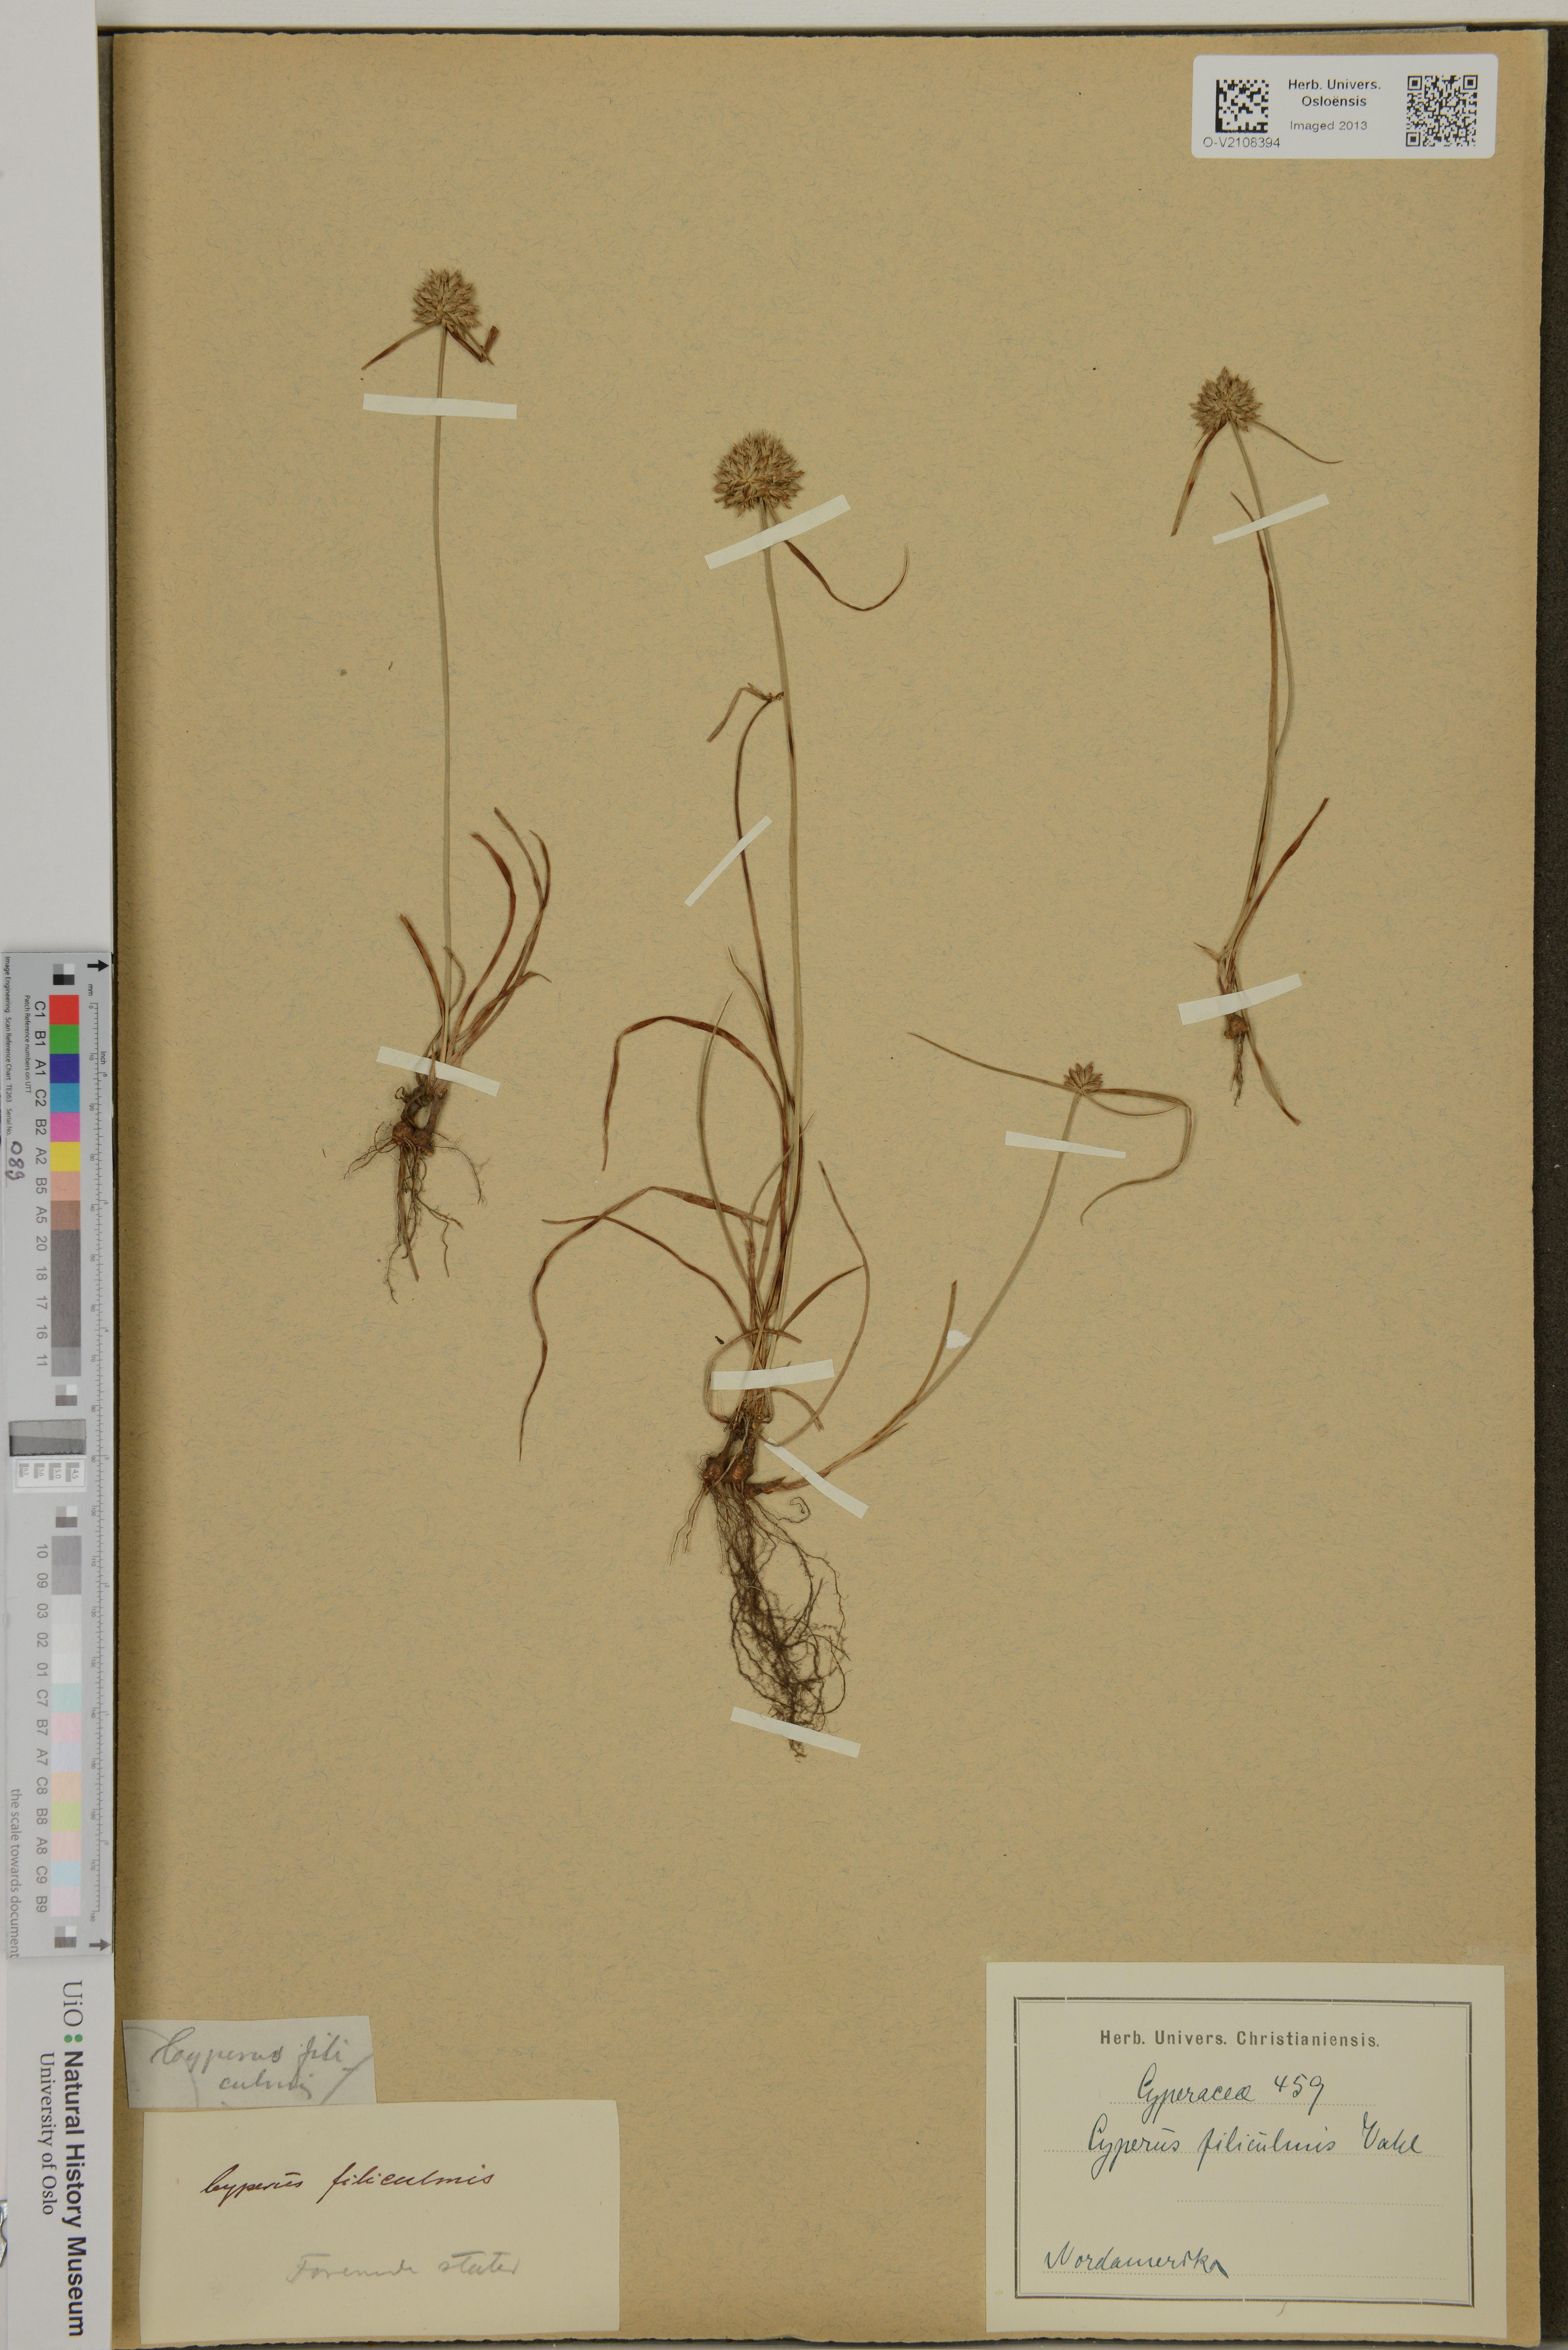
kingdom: Plantae
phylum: Tracheophyta
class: Liliopsida
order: Poales
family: Cyperaceae
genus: Cyperus
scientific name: Cyperus filiculmis
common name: Slender sand sedge
